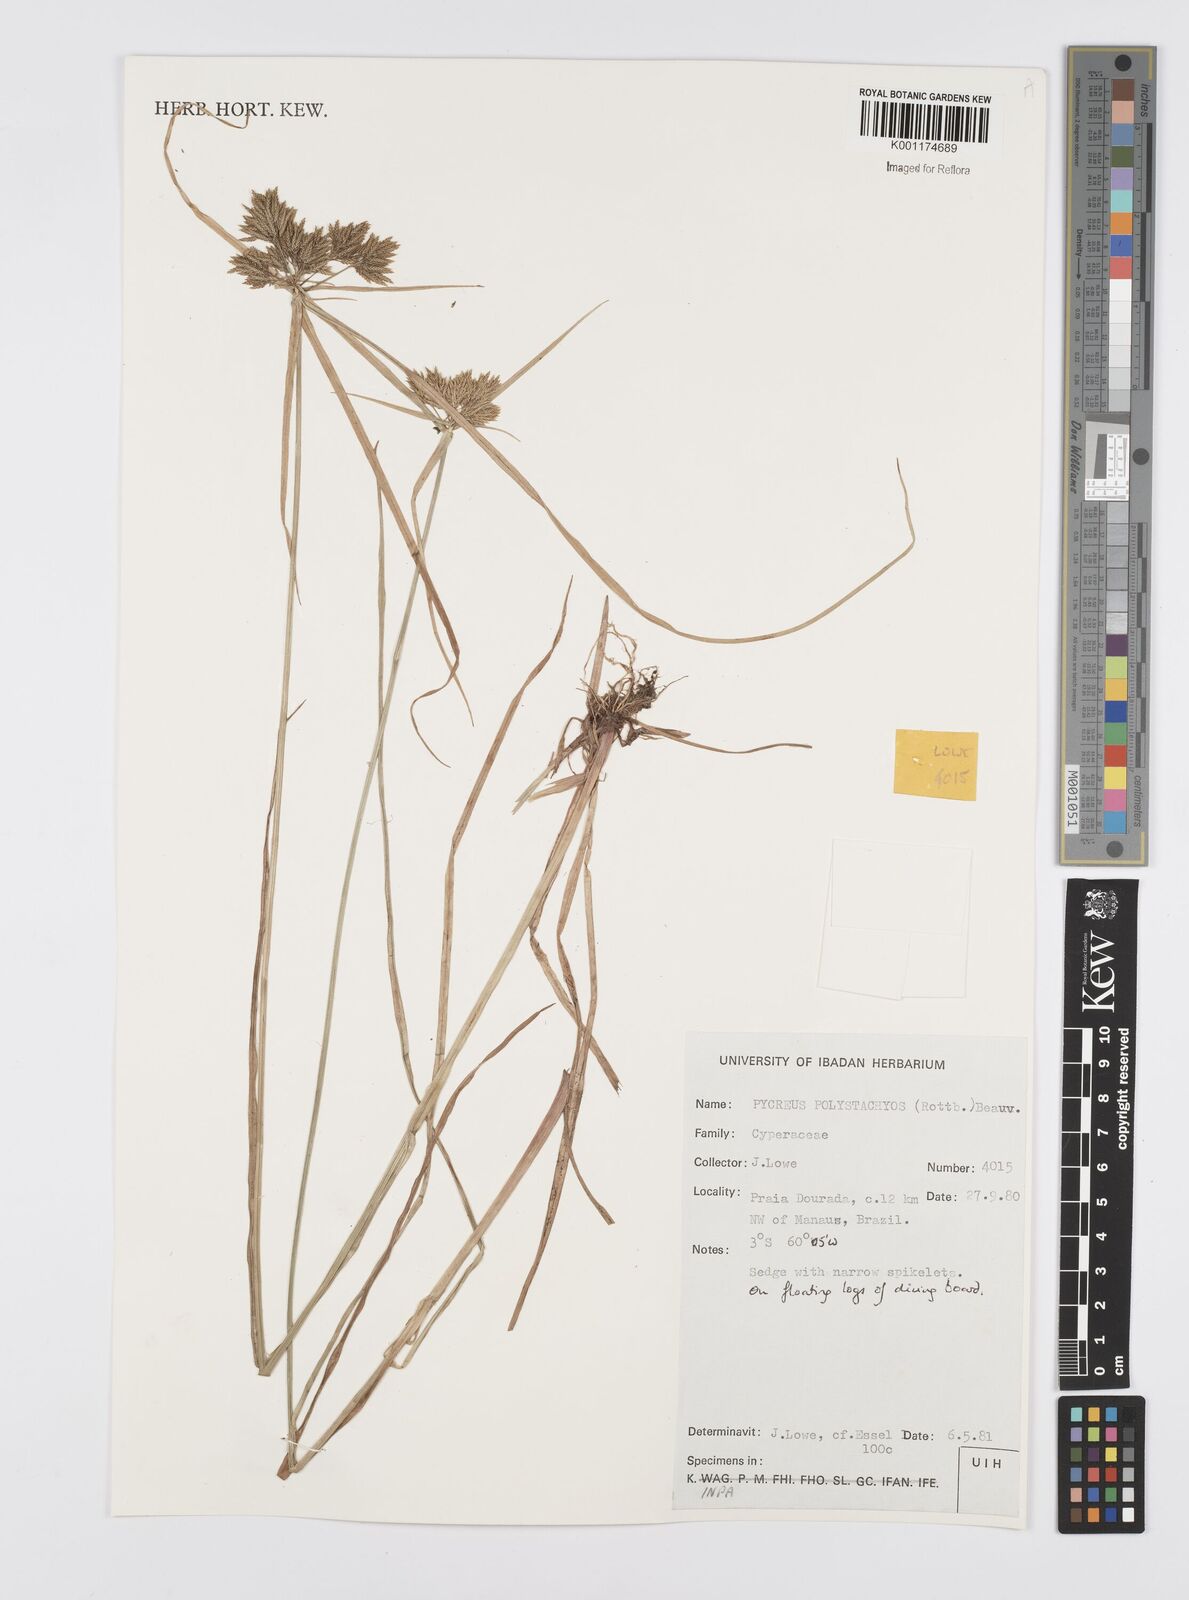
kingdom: Plantae
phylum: Tracheophyta
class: Liliopsida
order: Poales
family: Cyperaceae
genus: Cyperus
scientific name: Cyperus polystachyos
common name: Bunchy flat sedge
